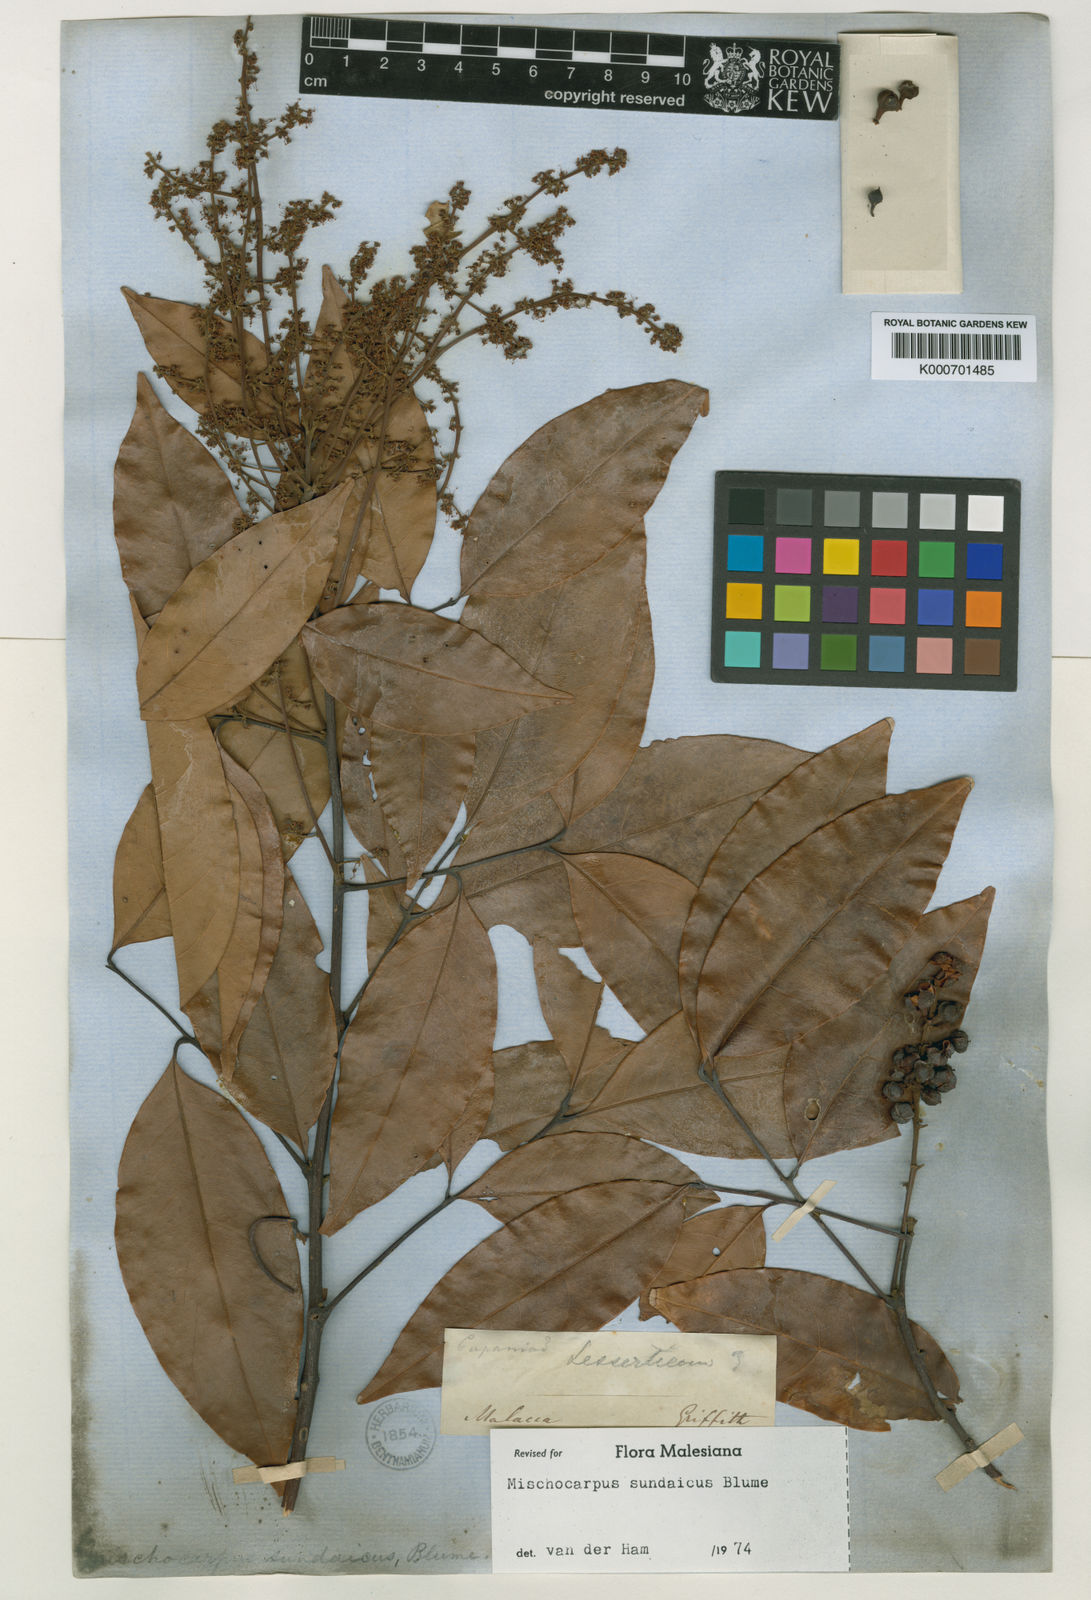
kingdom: Plantae
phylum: Tracheophyta
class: Magnoliopsida
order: Sapindales
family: Sapindaceae
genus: Mischocarpus
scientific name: Mischocarpus sundaicus
